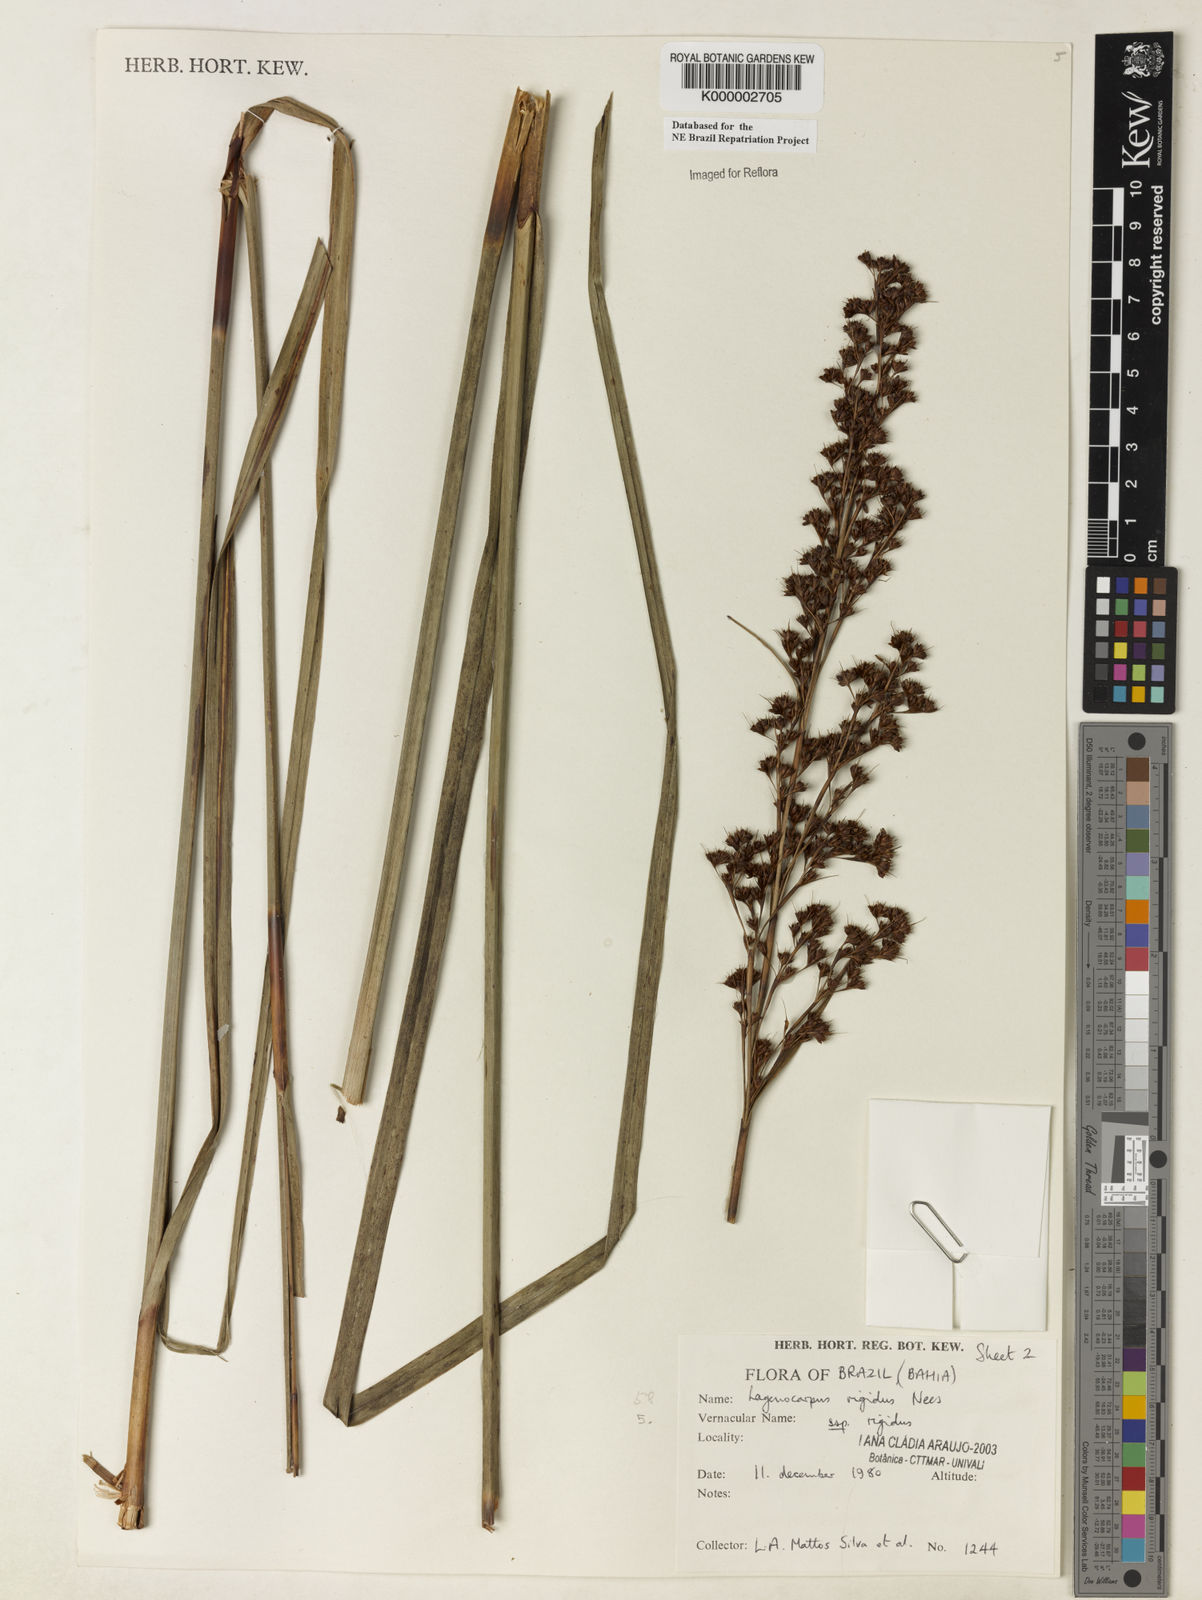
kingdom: Plantae
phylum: Tracheophyta
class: Liliopsida
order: Poales
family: Cyperaceae
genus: Lagenocarpus
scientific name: Lagenocarpus rigidus
